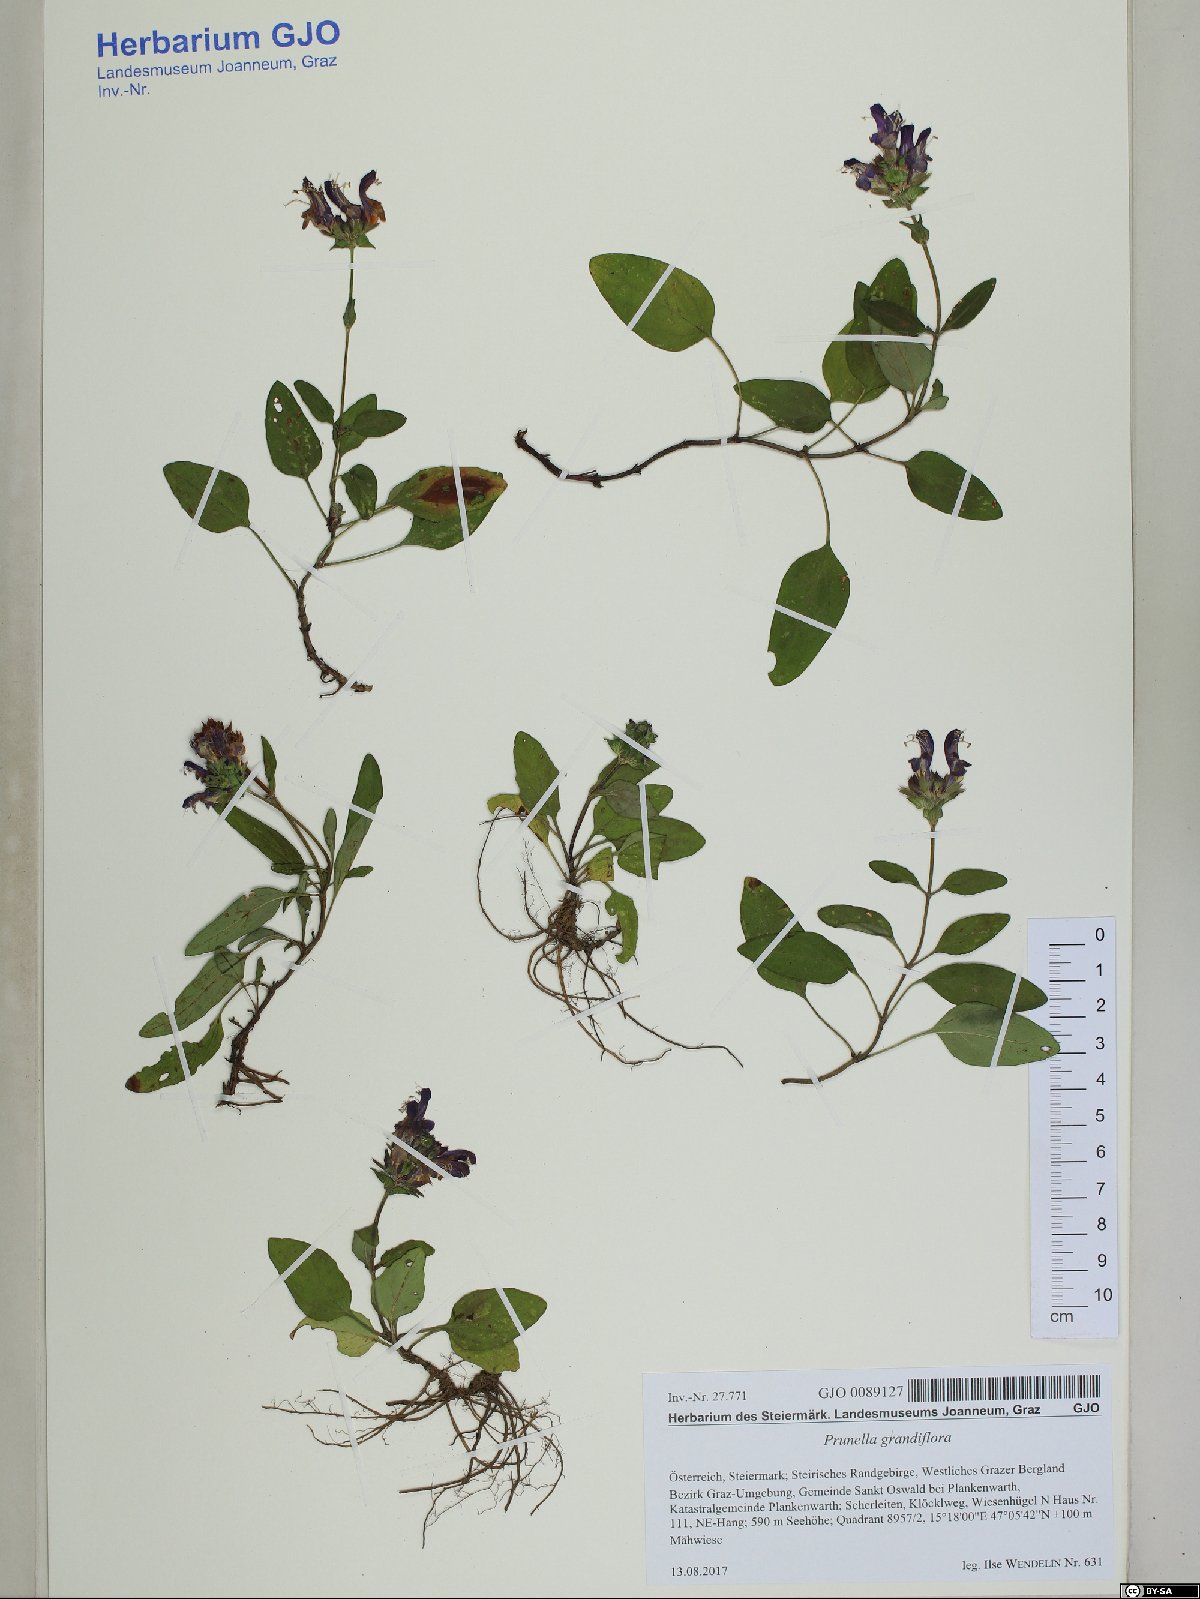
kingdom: Plantae
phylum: Tracheophyta
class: Magnoliopsida
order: Lamiales
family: Lamiaceae
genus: Prunella
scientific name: Prunella grandiflora
